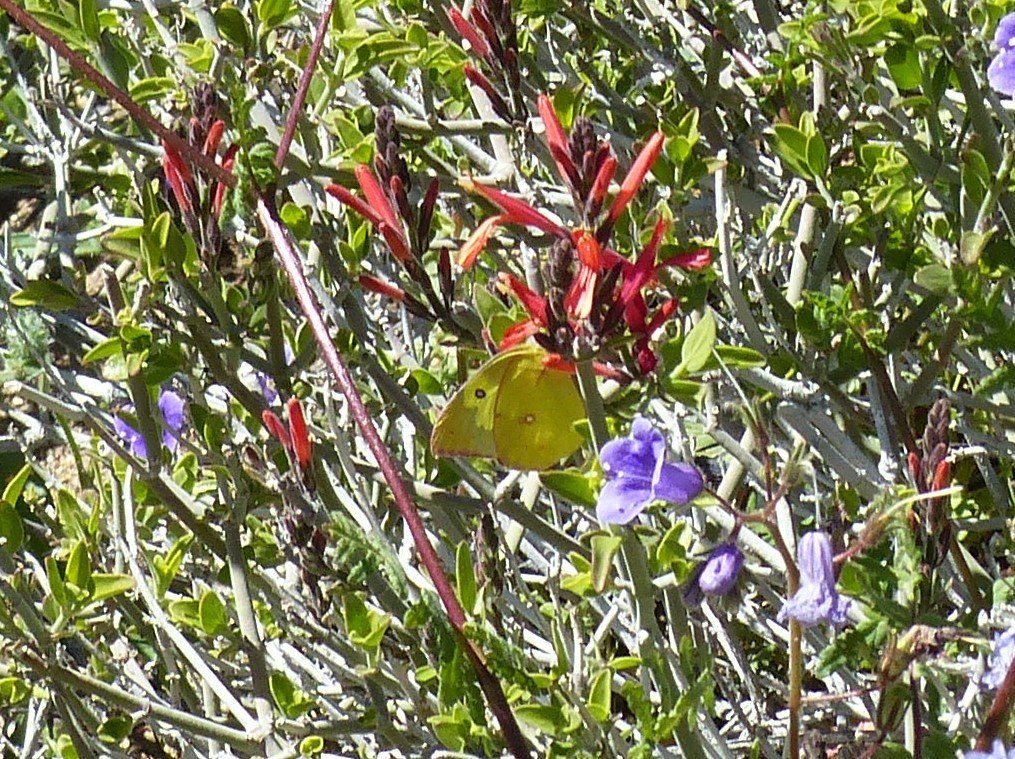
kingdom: Animalia
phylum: Arthropoda
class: Insecta
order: Lepidoptera
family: Pieridae
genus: Zerene
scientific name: Zerene cesonia
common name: Southern Dogface
